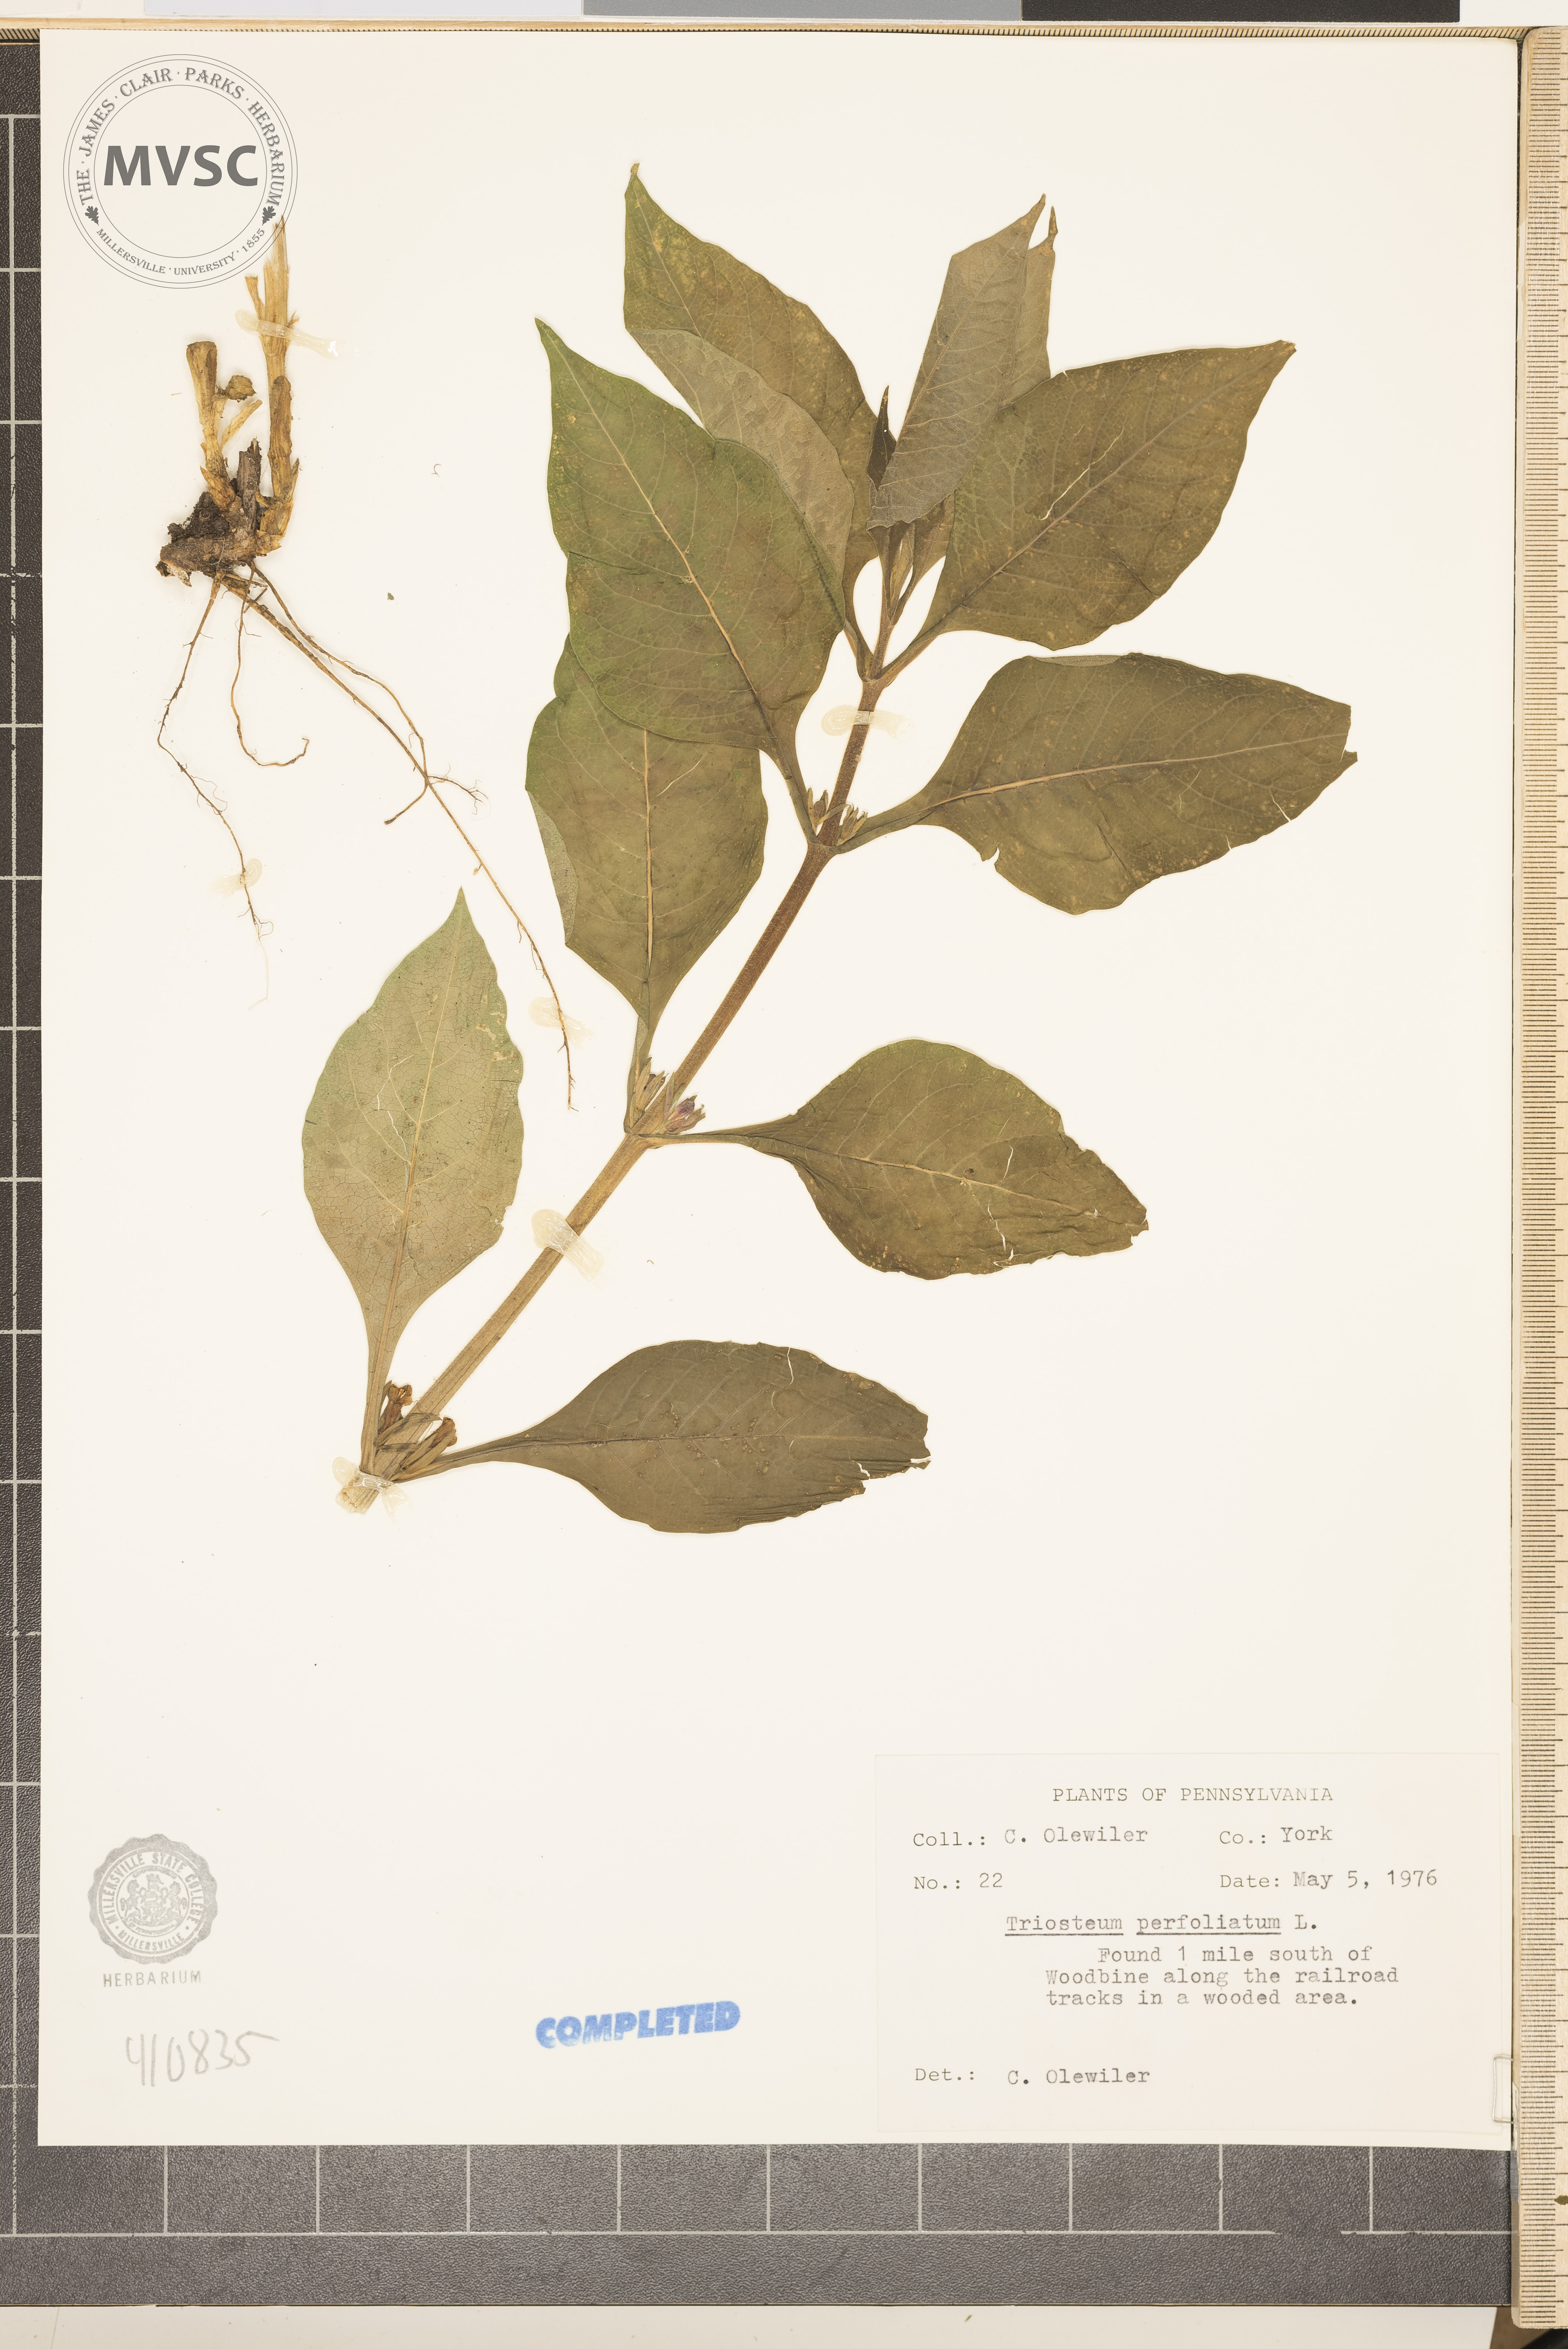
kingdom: Plantae
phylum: Tracheophyta
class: Magnoliopsida
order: Dipsacales
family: Caprifoliaceae
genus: Triosteum
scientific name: Triosteum perfoliatum
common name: Common horse-gentian
